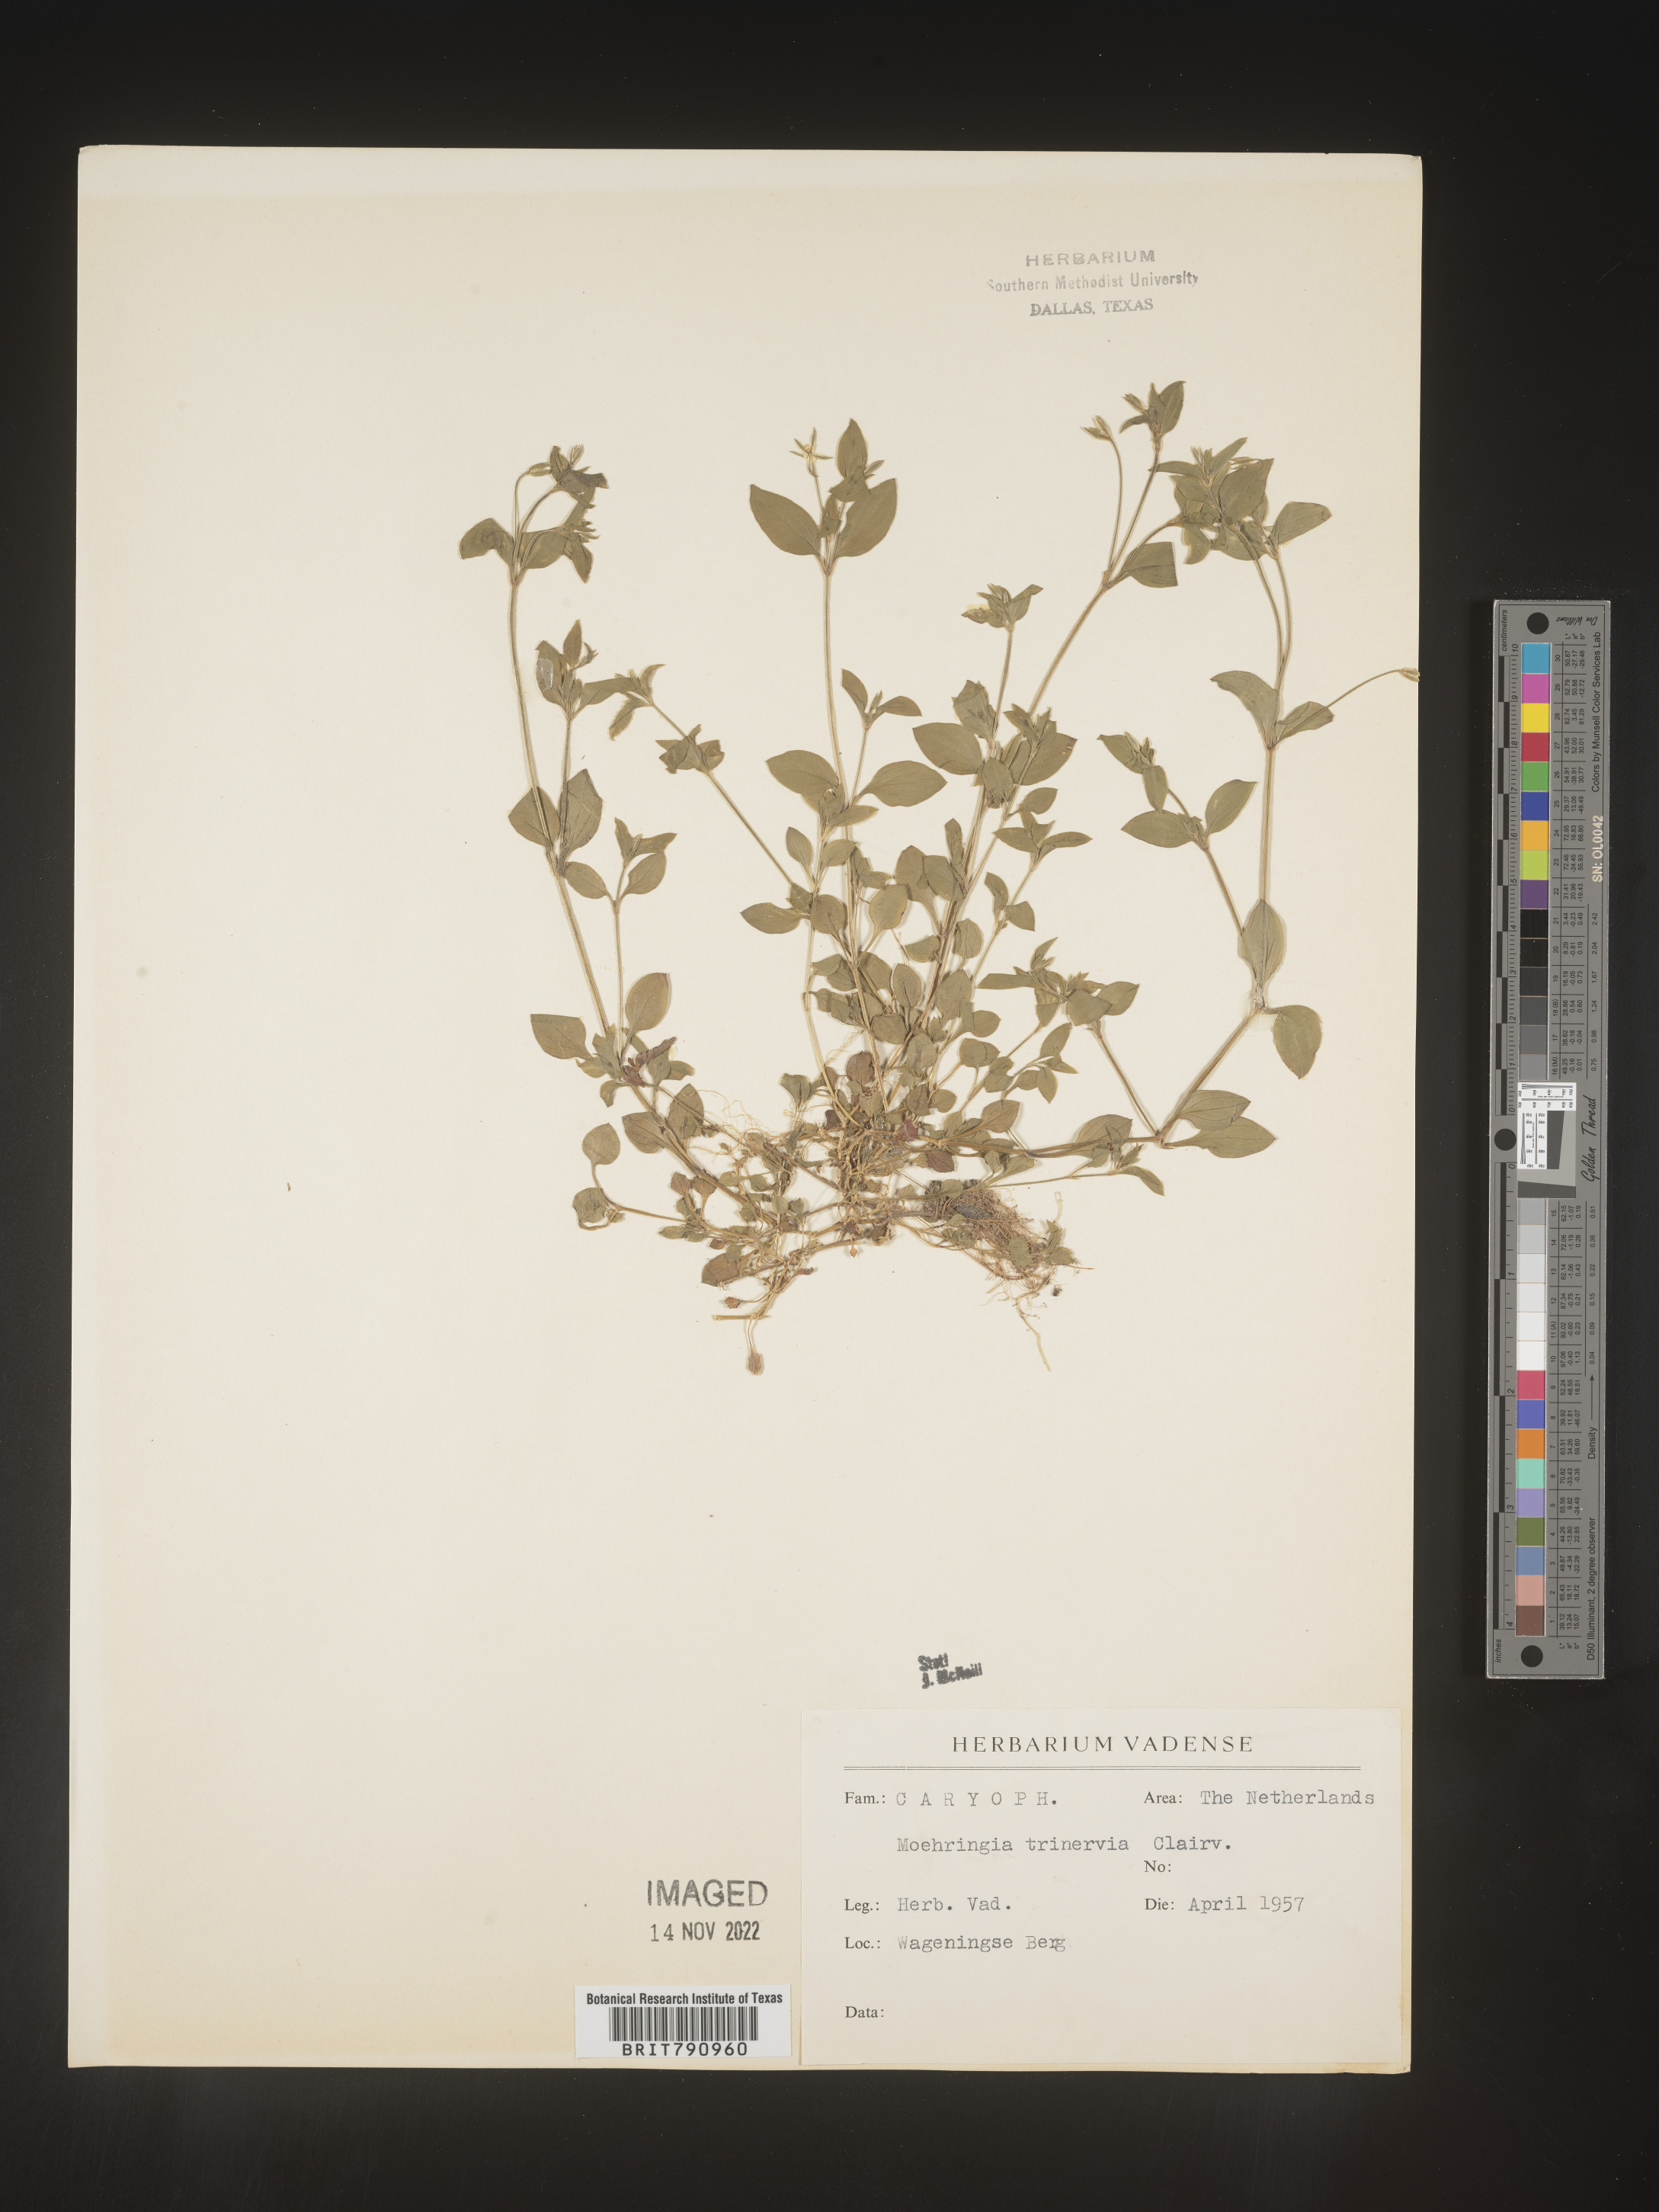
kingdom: Plantae
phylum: Tracheophyta
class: Magnoliopsida
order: Caryophyllales
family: Caryophyllaceae
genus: Moehringia
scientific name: Moehringia
